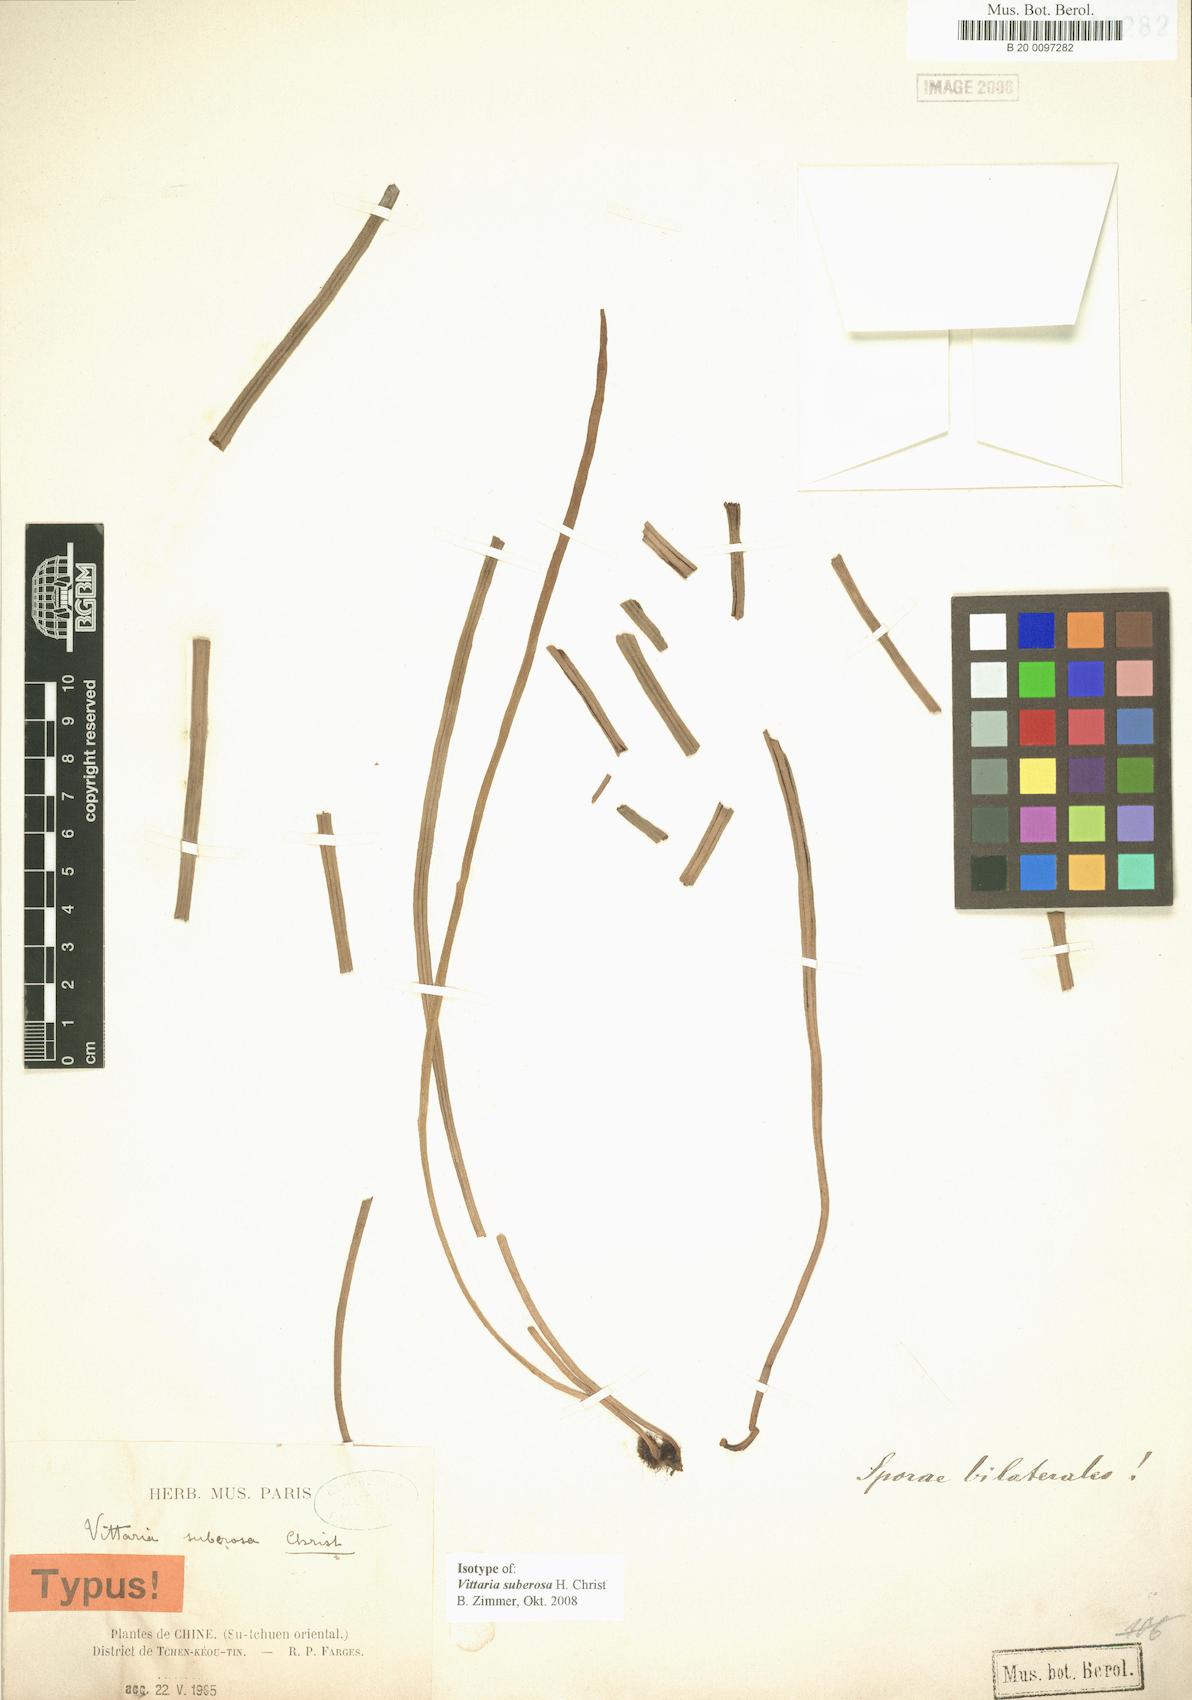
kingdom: Plantae
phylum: Tracheophyta
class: Polypodiopsida
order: Polypodiales
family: Pteridaceae
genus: Haplopteris
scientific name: Haplopteris fudzinoi
